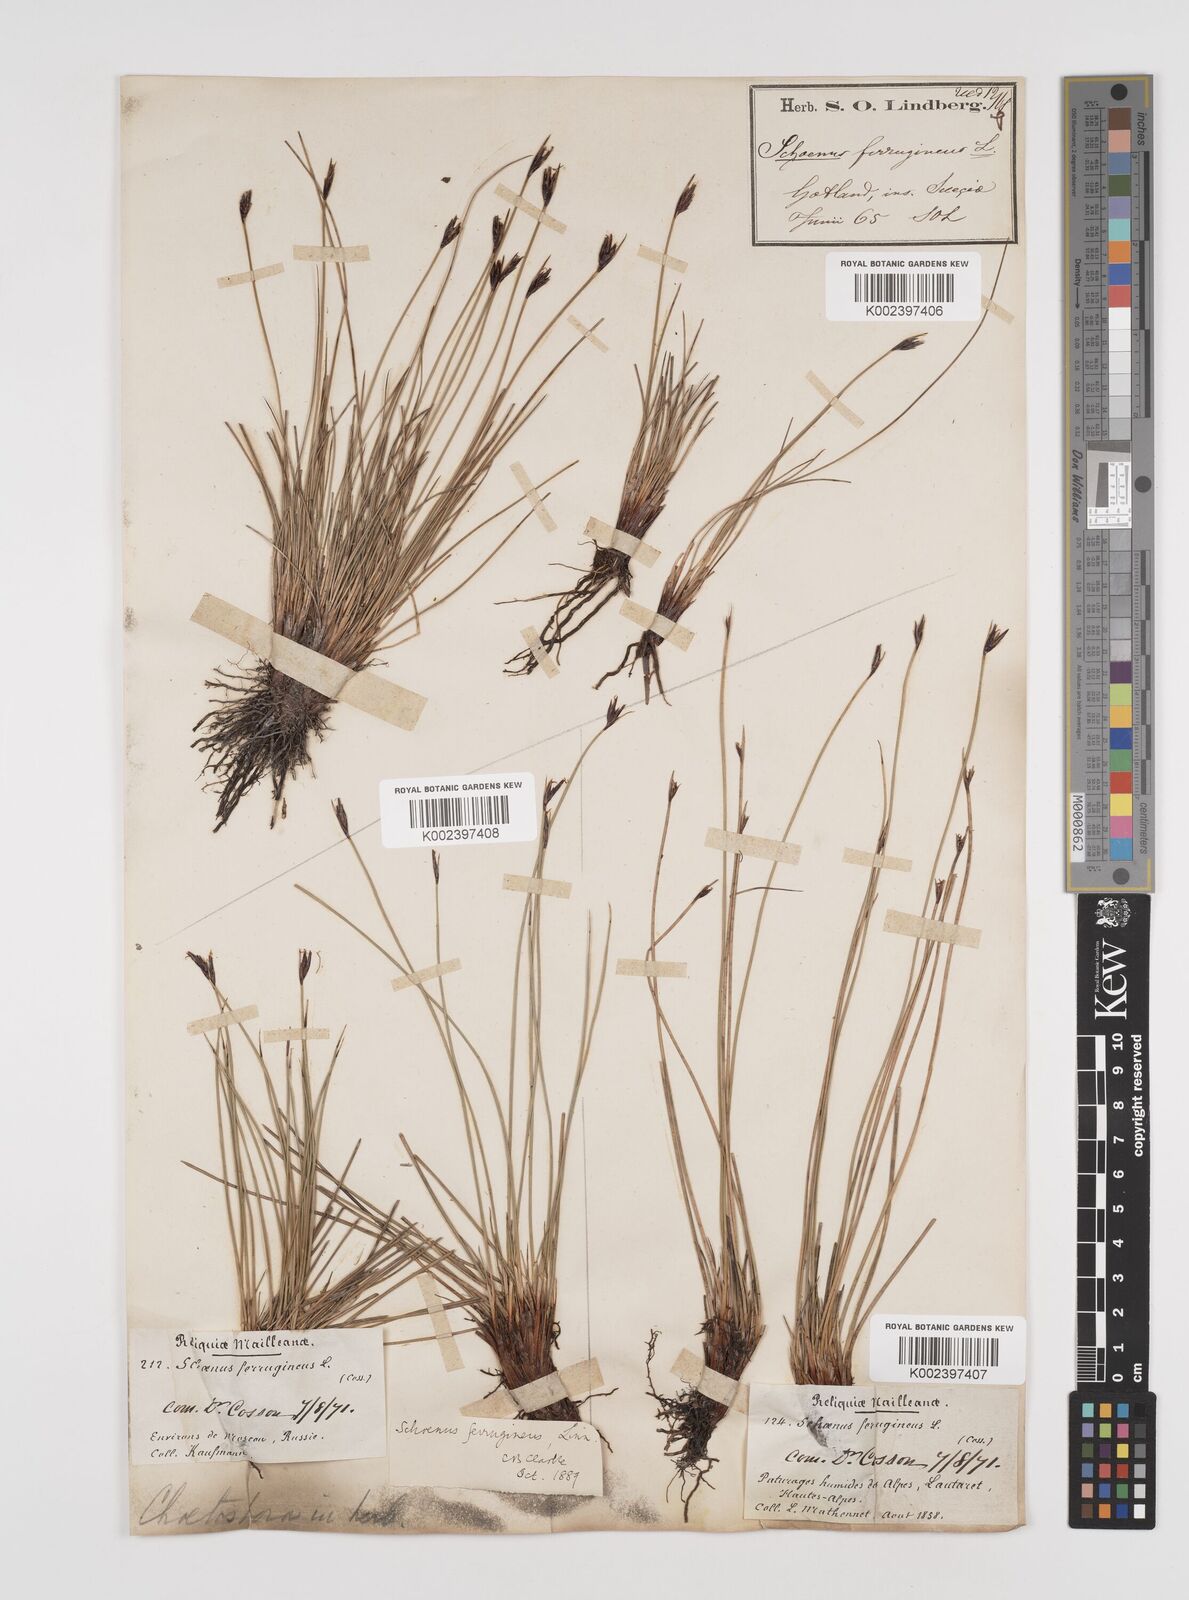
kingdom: Plantae
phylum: Tracheophyta
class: Liliopsida
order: Poales
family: Cyperaceae
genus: Schoenus
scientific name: Schoenus ferrugineus
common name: Brown bog-rush
